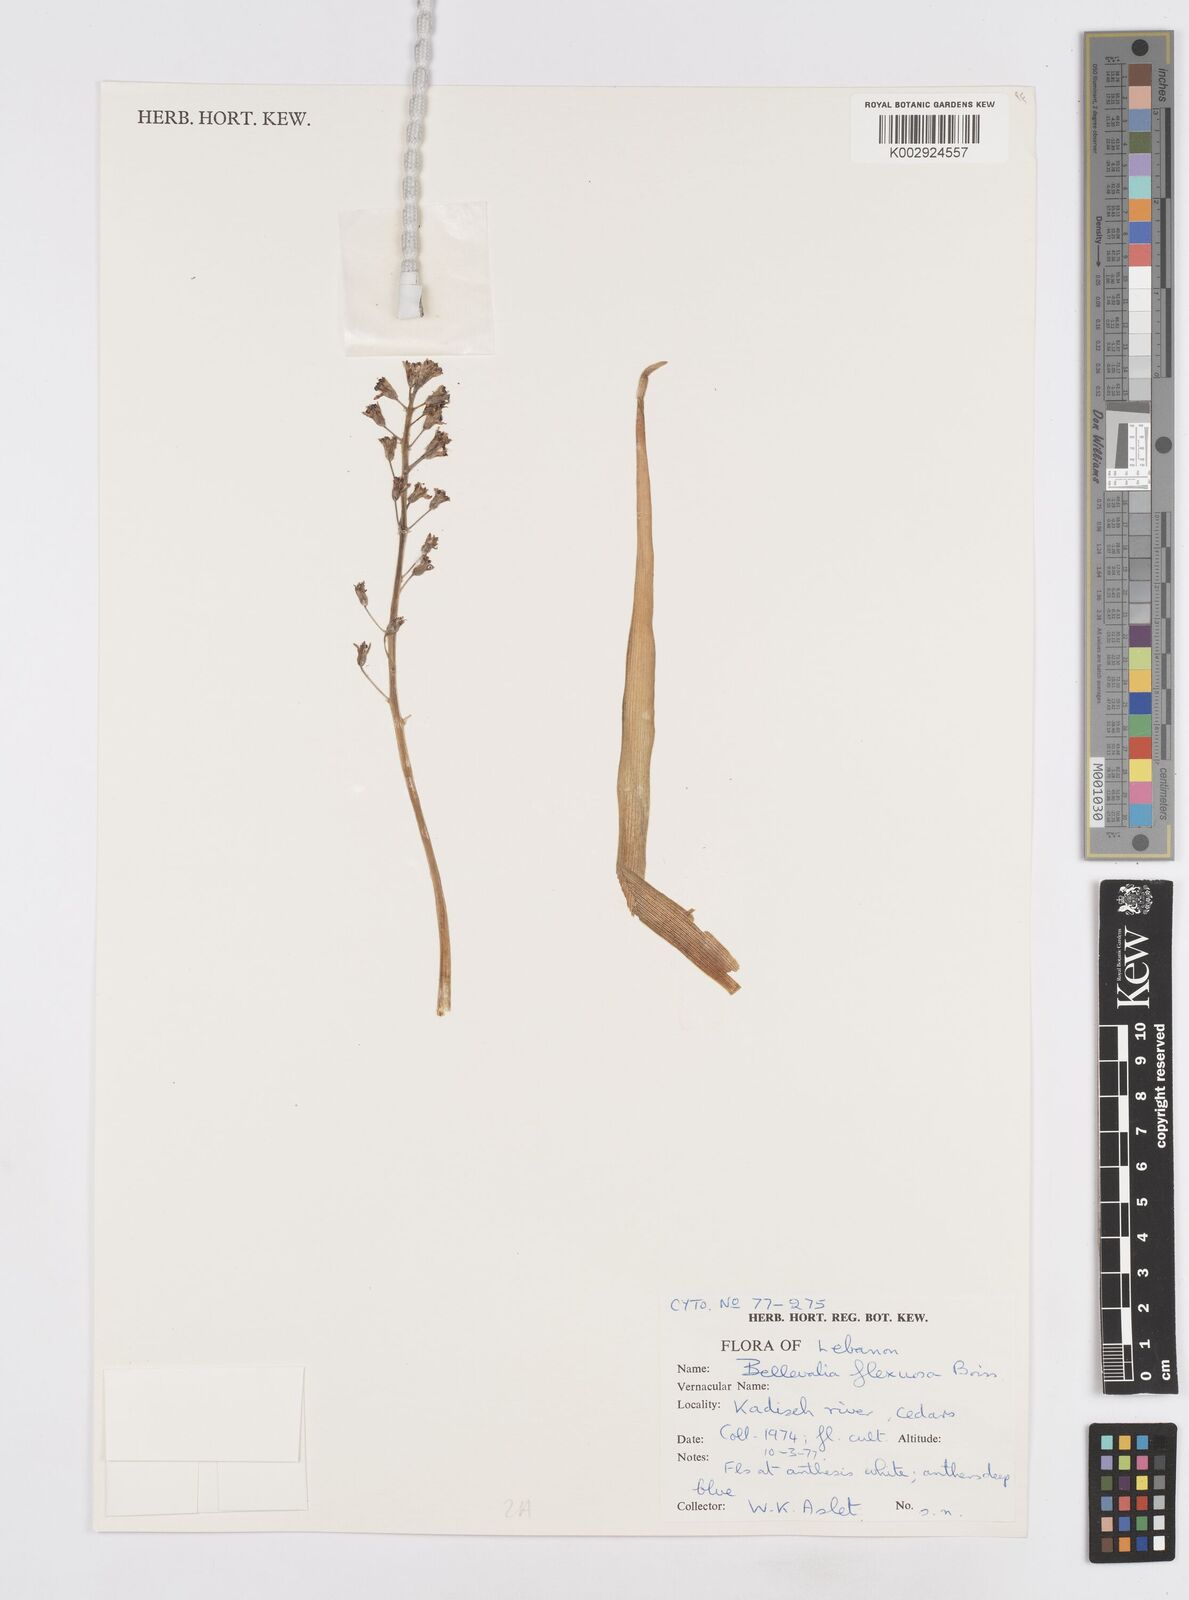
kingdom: Plantae
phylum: Tracheophyta
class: Liliopsida
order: Asparagales
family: Asparagaceae
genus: Bellevalia
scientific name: Bellevalia flexuosa
